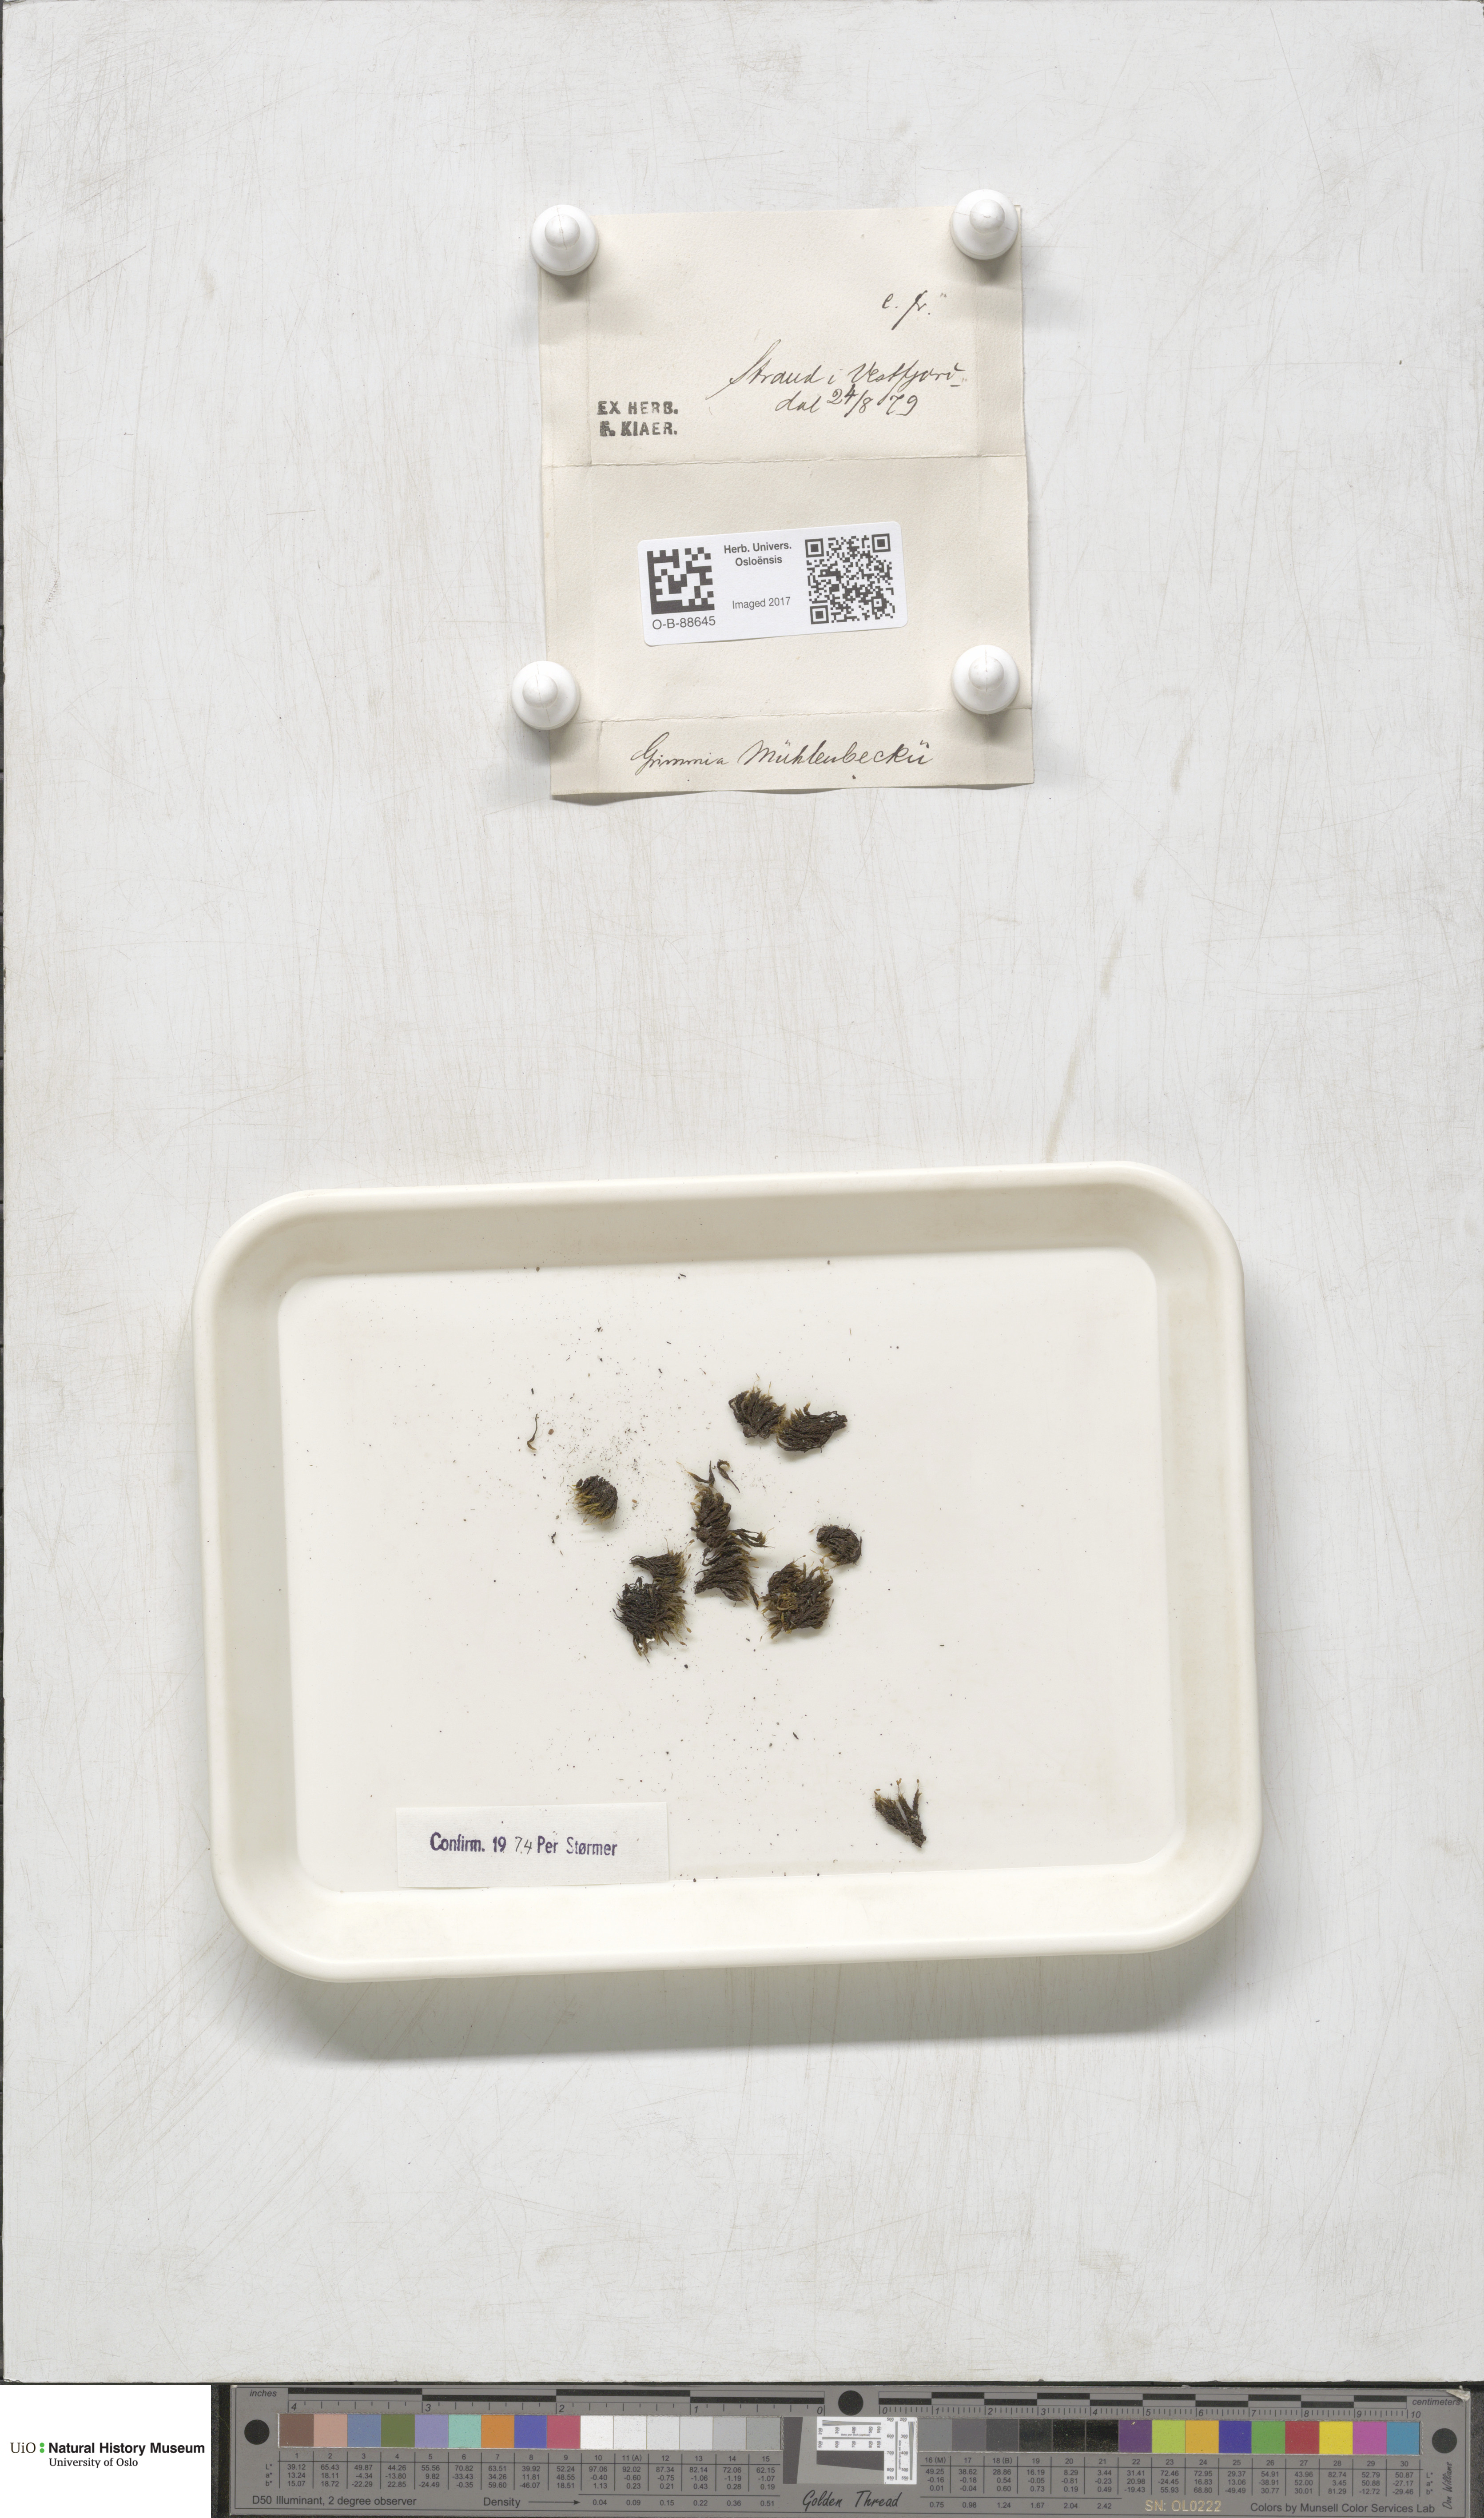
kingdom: Plantae
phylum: Bryophyta
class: Bryopsida
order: Grimmiales
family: Grimmiaceae
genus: Grimmia
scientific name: Grimmia trichophylla
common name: Hair-pointed grimmia
